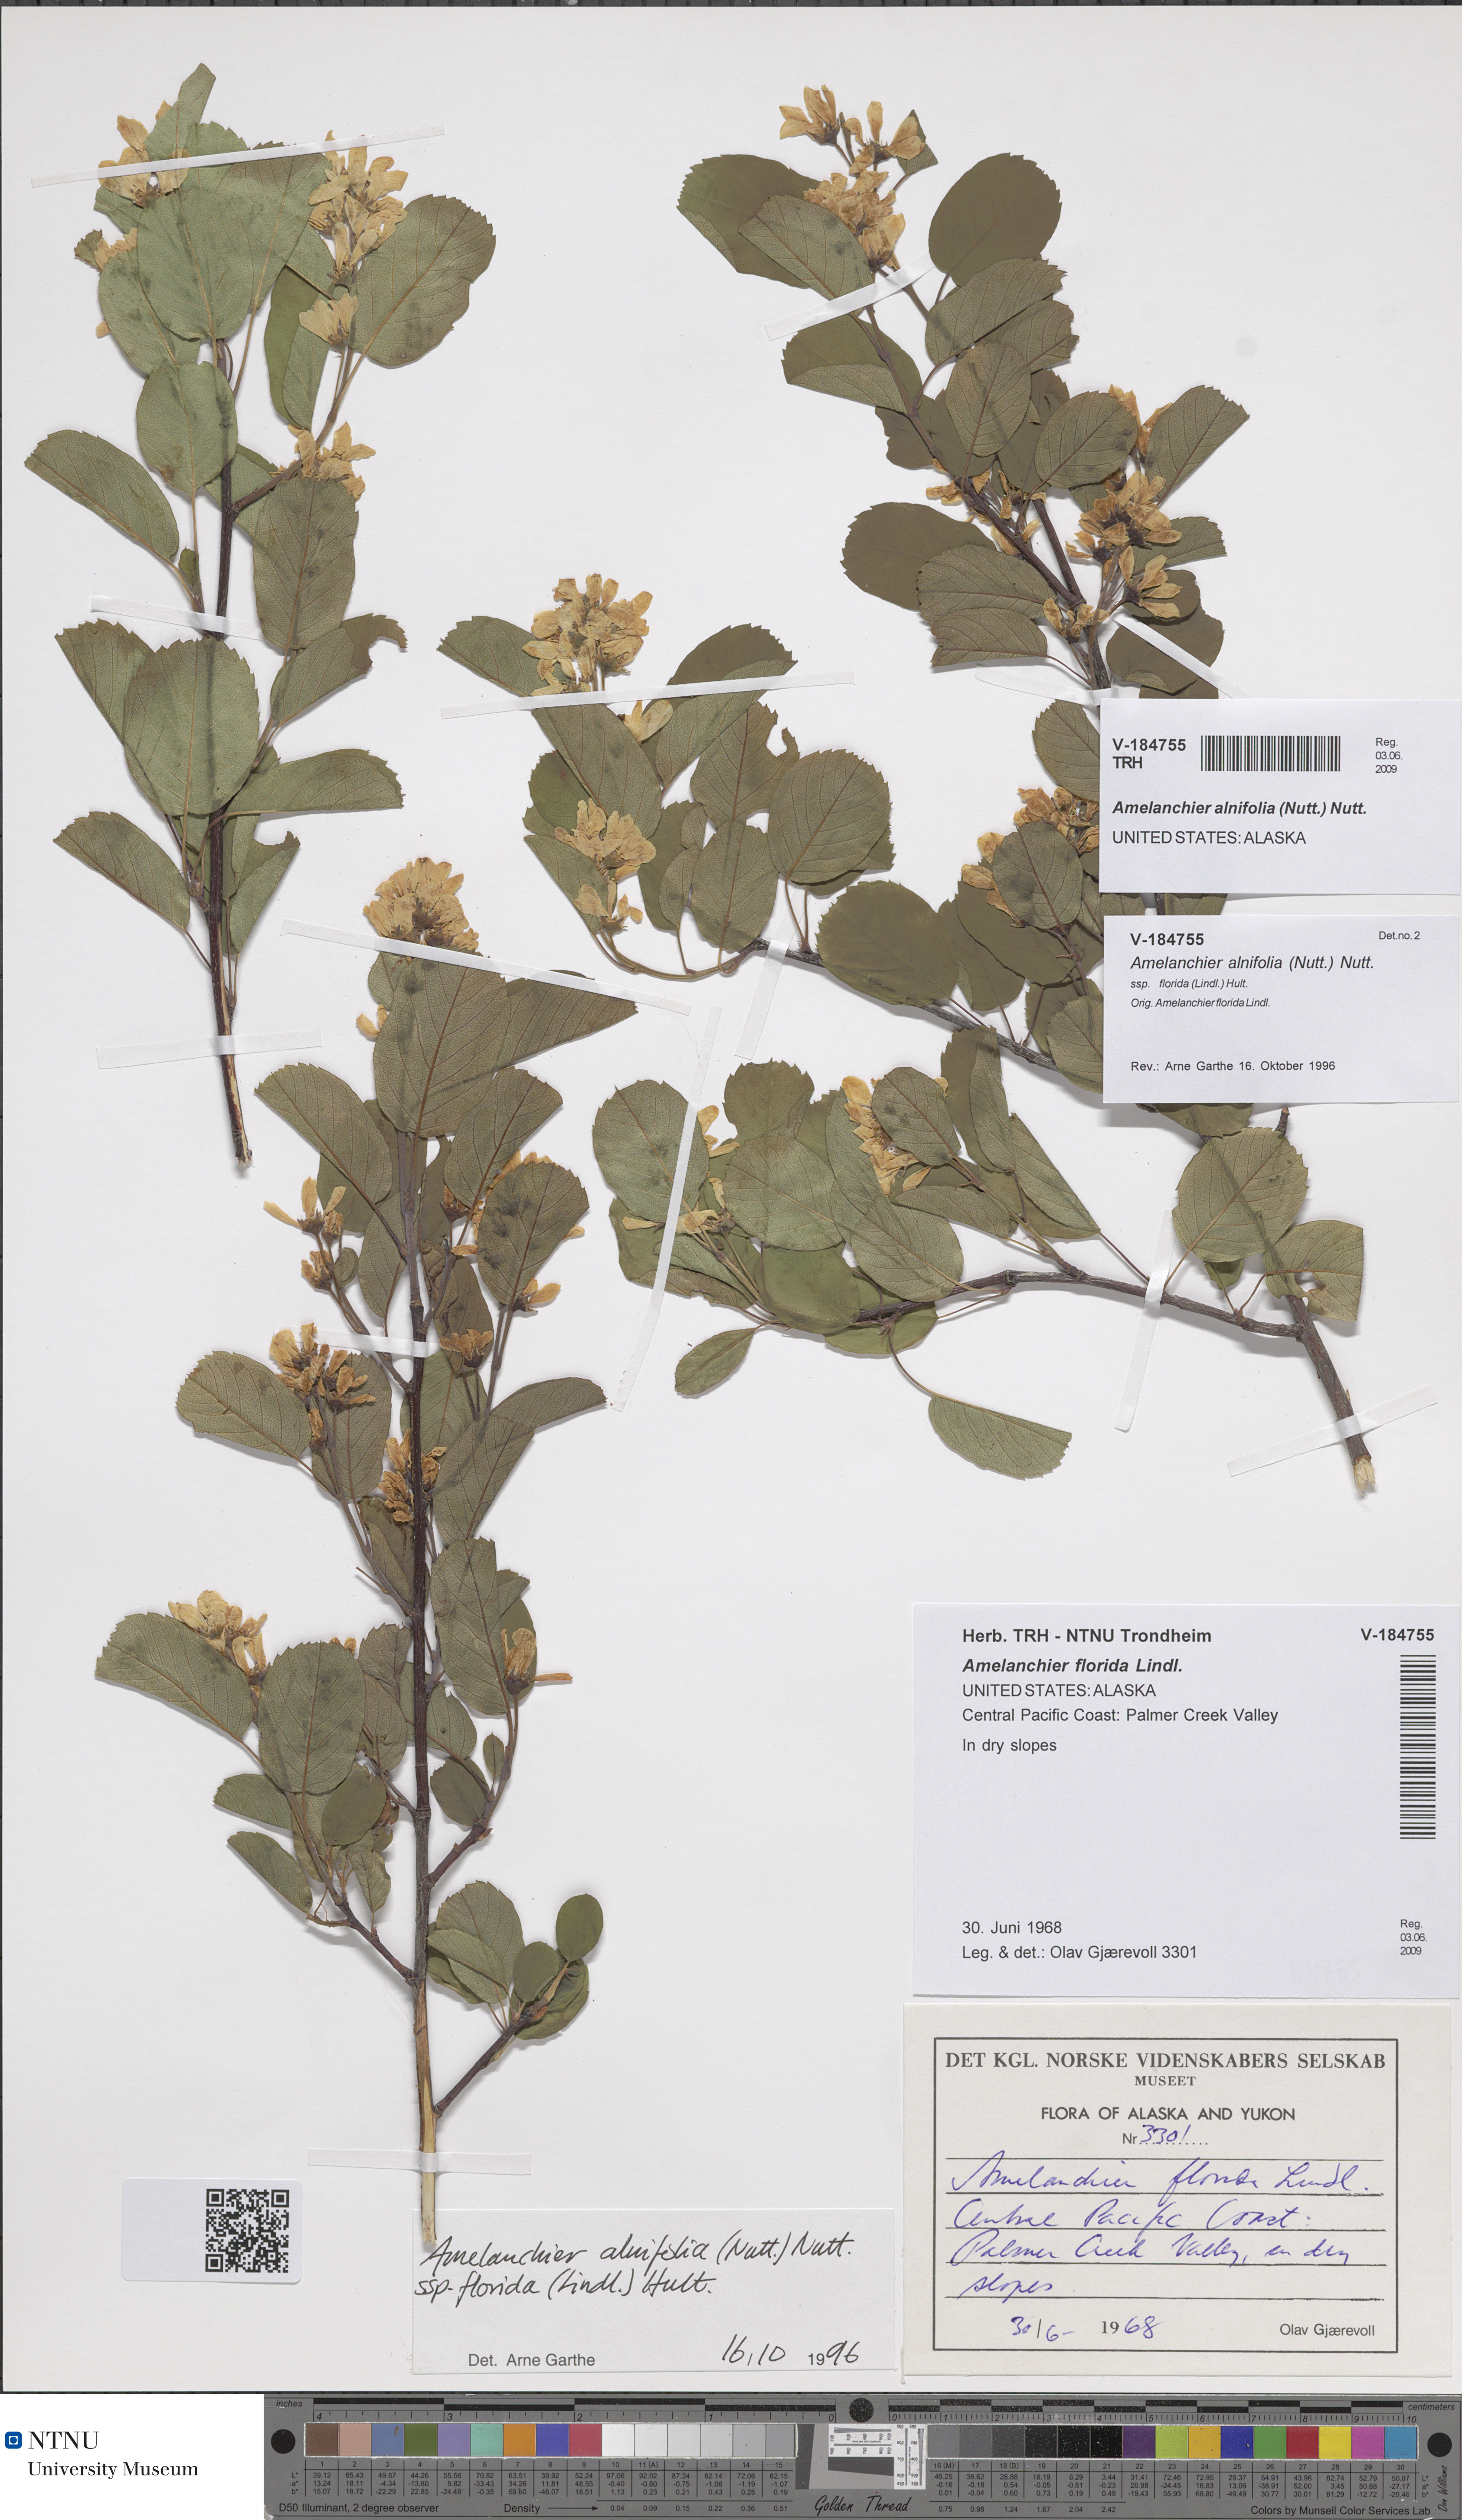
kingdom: Plantae
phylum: Tracheophyta
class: Magnoliopsida
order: Rosales
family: Rosaceae
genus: Amelanchier
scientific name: Amelanchier alnifolia
